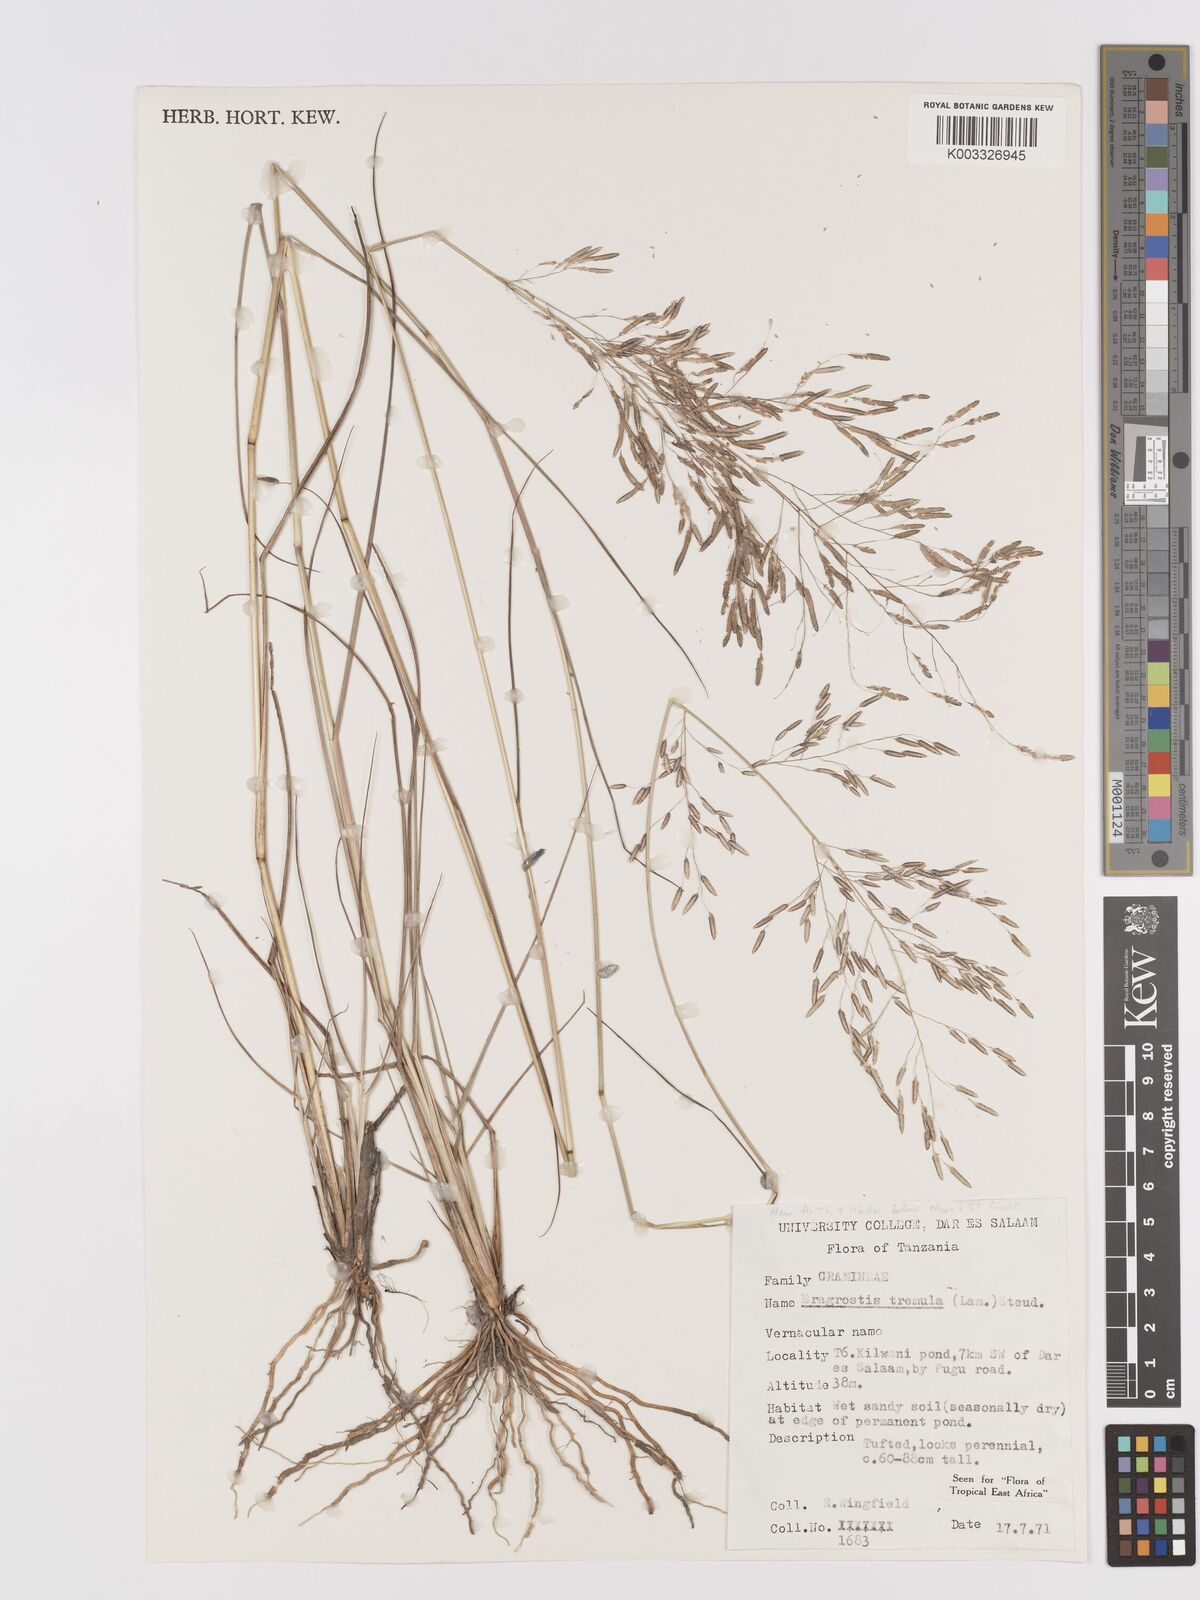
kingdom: Plantae
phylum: Tracheophyta
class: Liliopsida
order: Poales
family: Poaceae
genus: Eragrostis
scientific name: Eragrostis tremula
